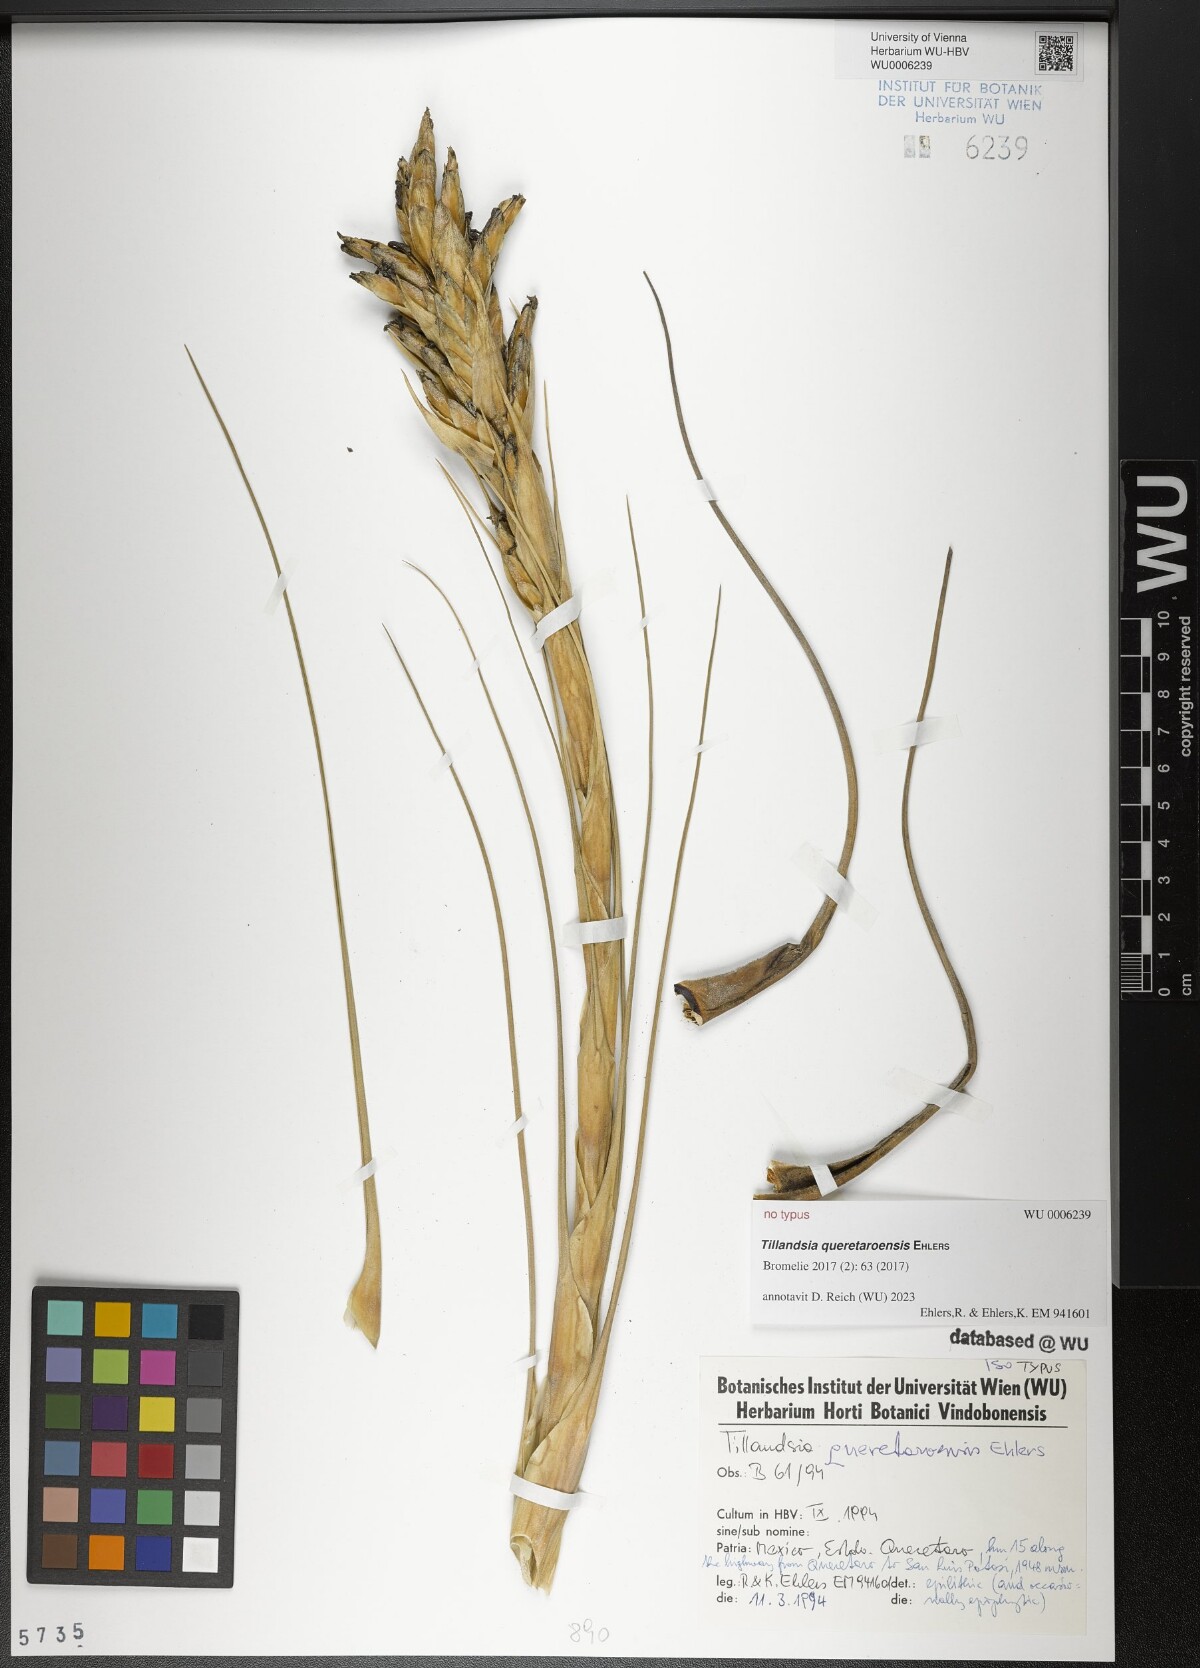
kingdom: Plantae
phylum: Tracheophyta
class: Liliopsida
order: Poales
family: Bromeliaceae
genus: Tillandsia
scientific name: Tillandsia queretaroensis
